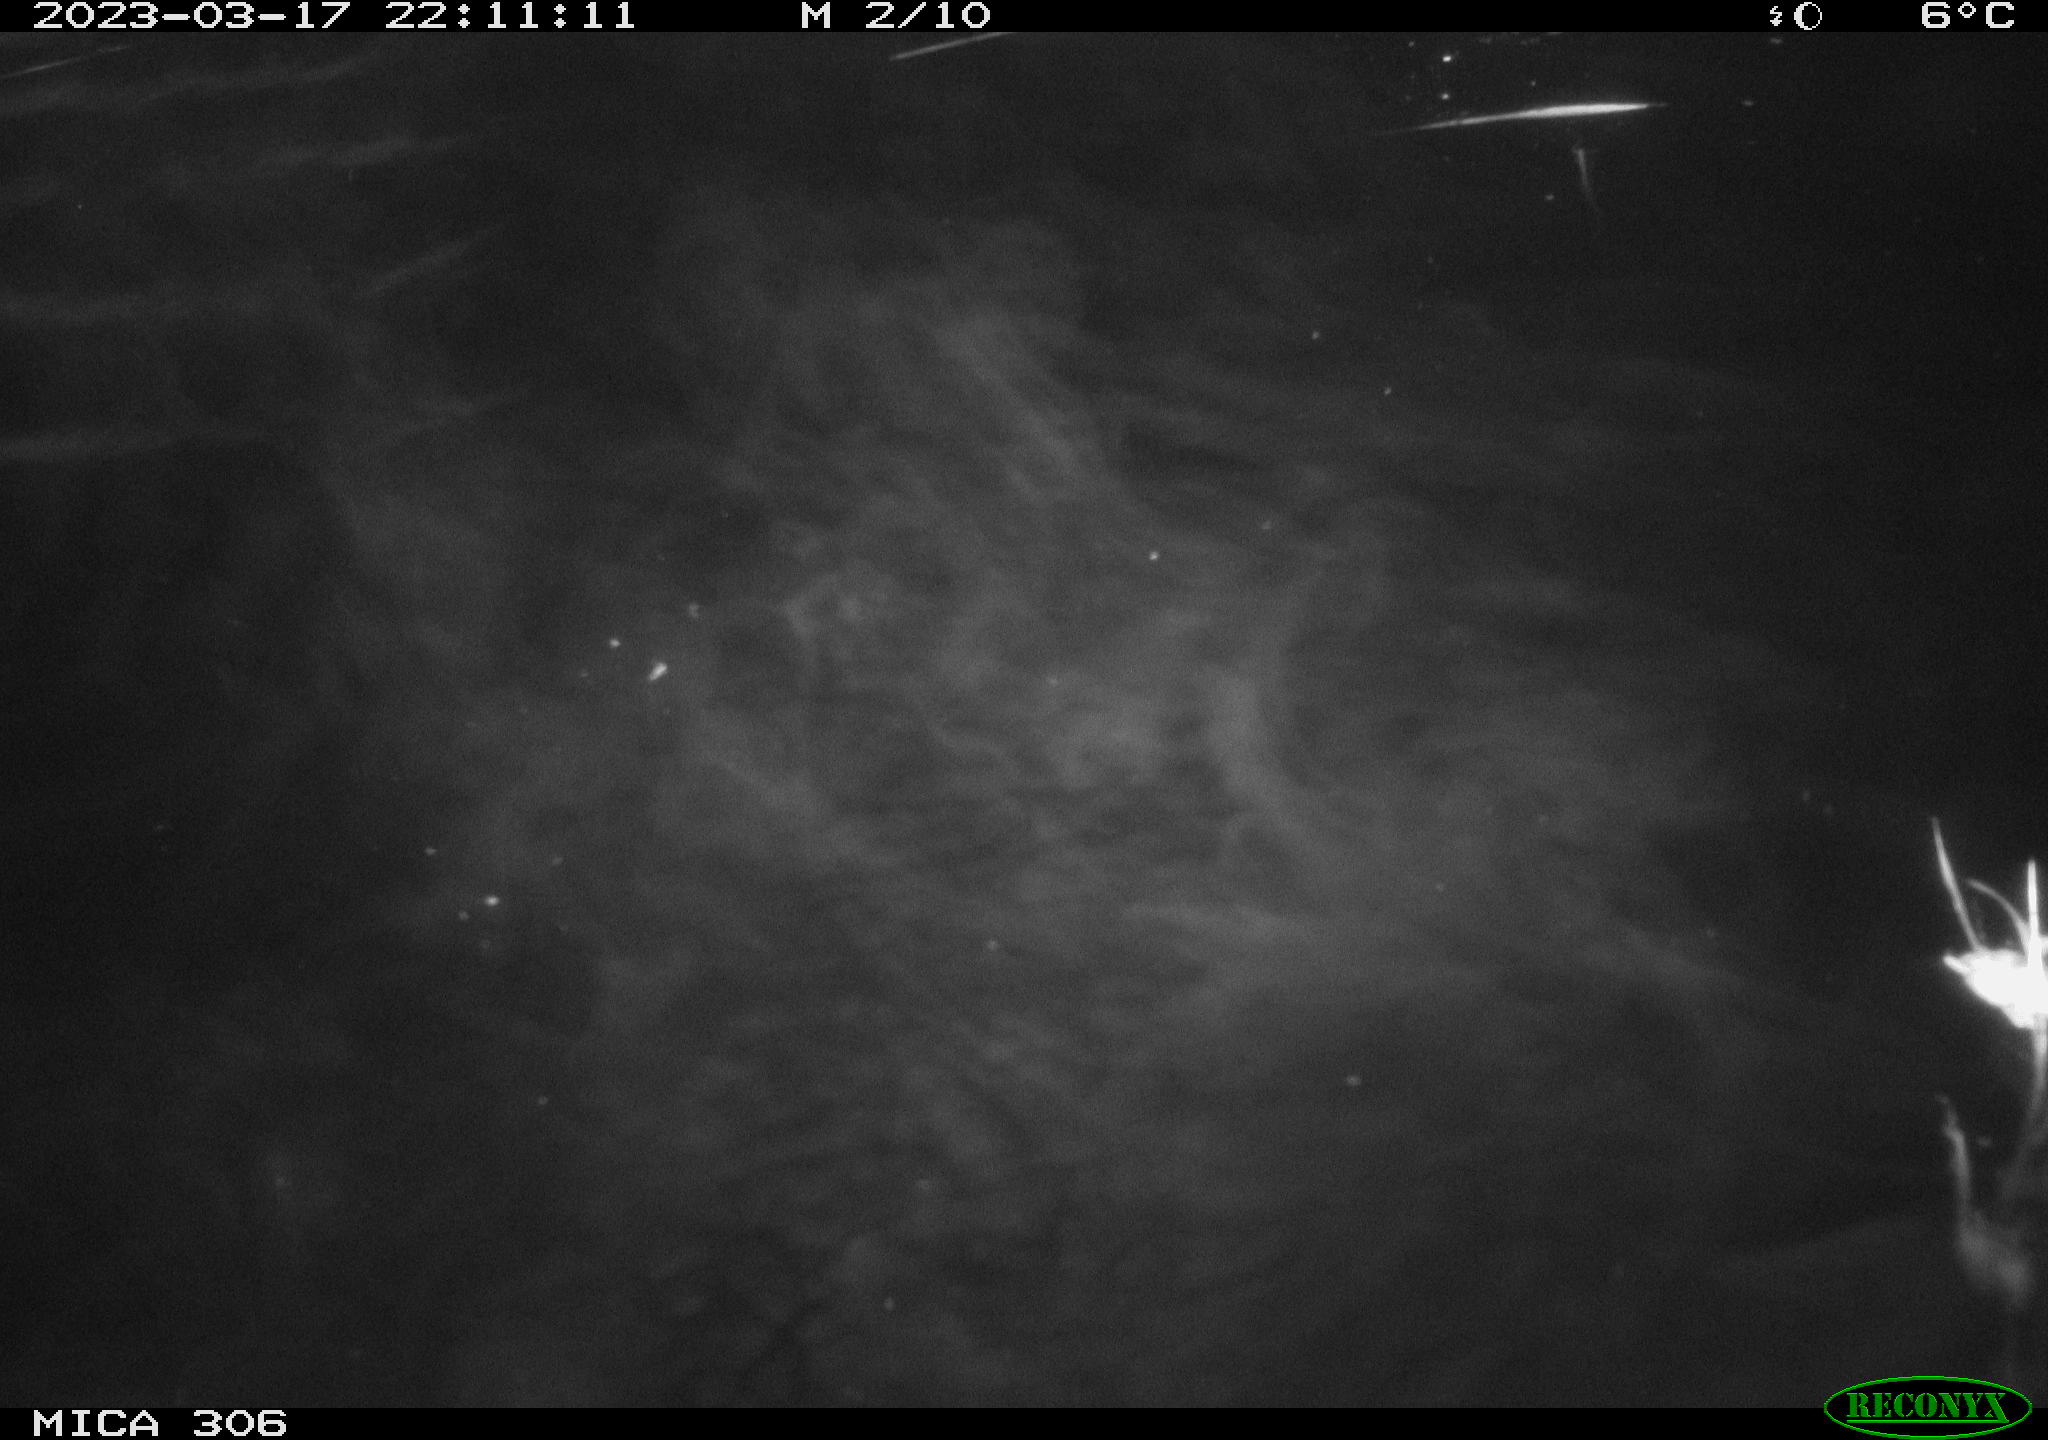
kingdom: Animalia
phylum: Chordata
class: Mammalia
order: Rodentia
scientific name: Rodentia
